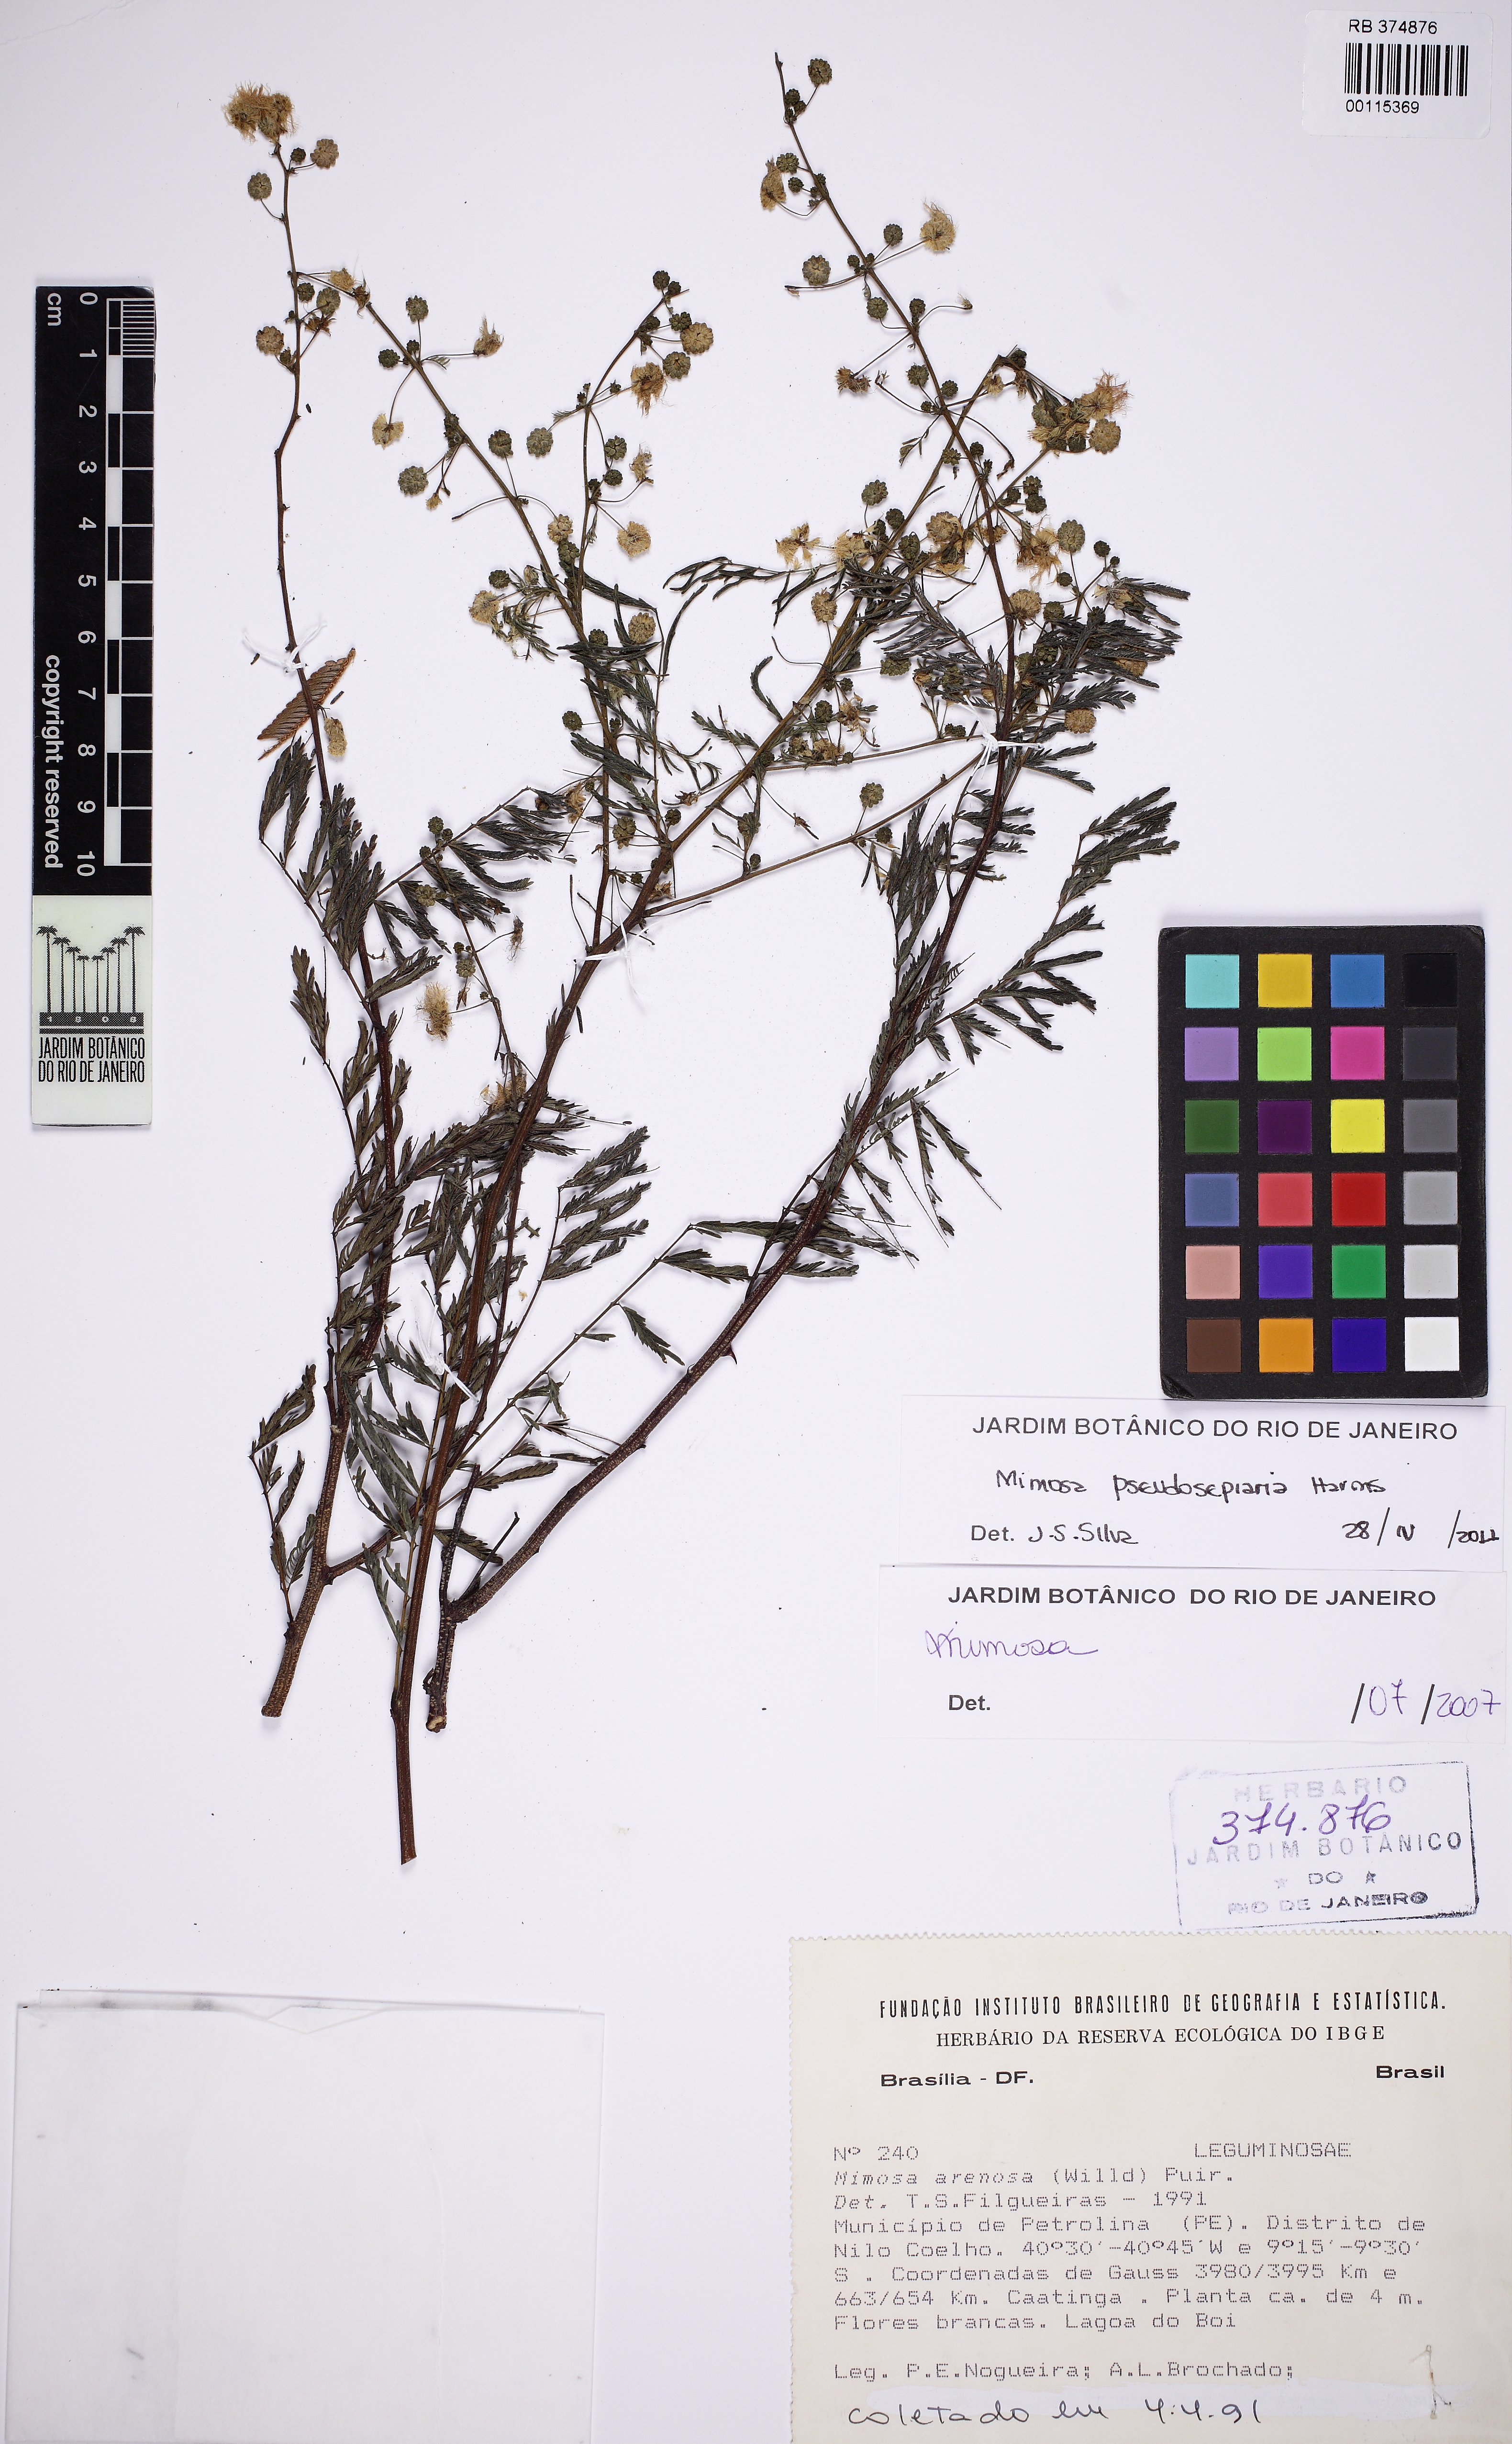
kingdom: Plantae
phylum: Tracheophyta
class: Magnoliopsida
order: Fabales
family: Fabaceae
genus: Mimosa
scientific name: Mimosa pseudosepiaria
